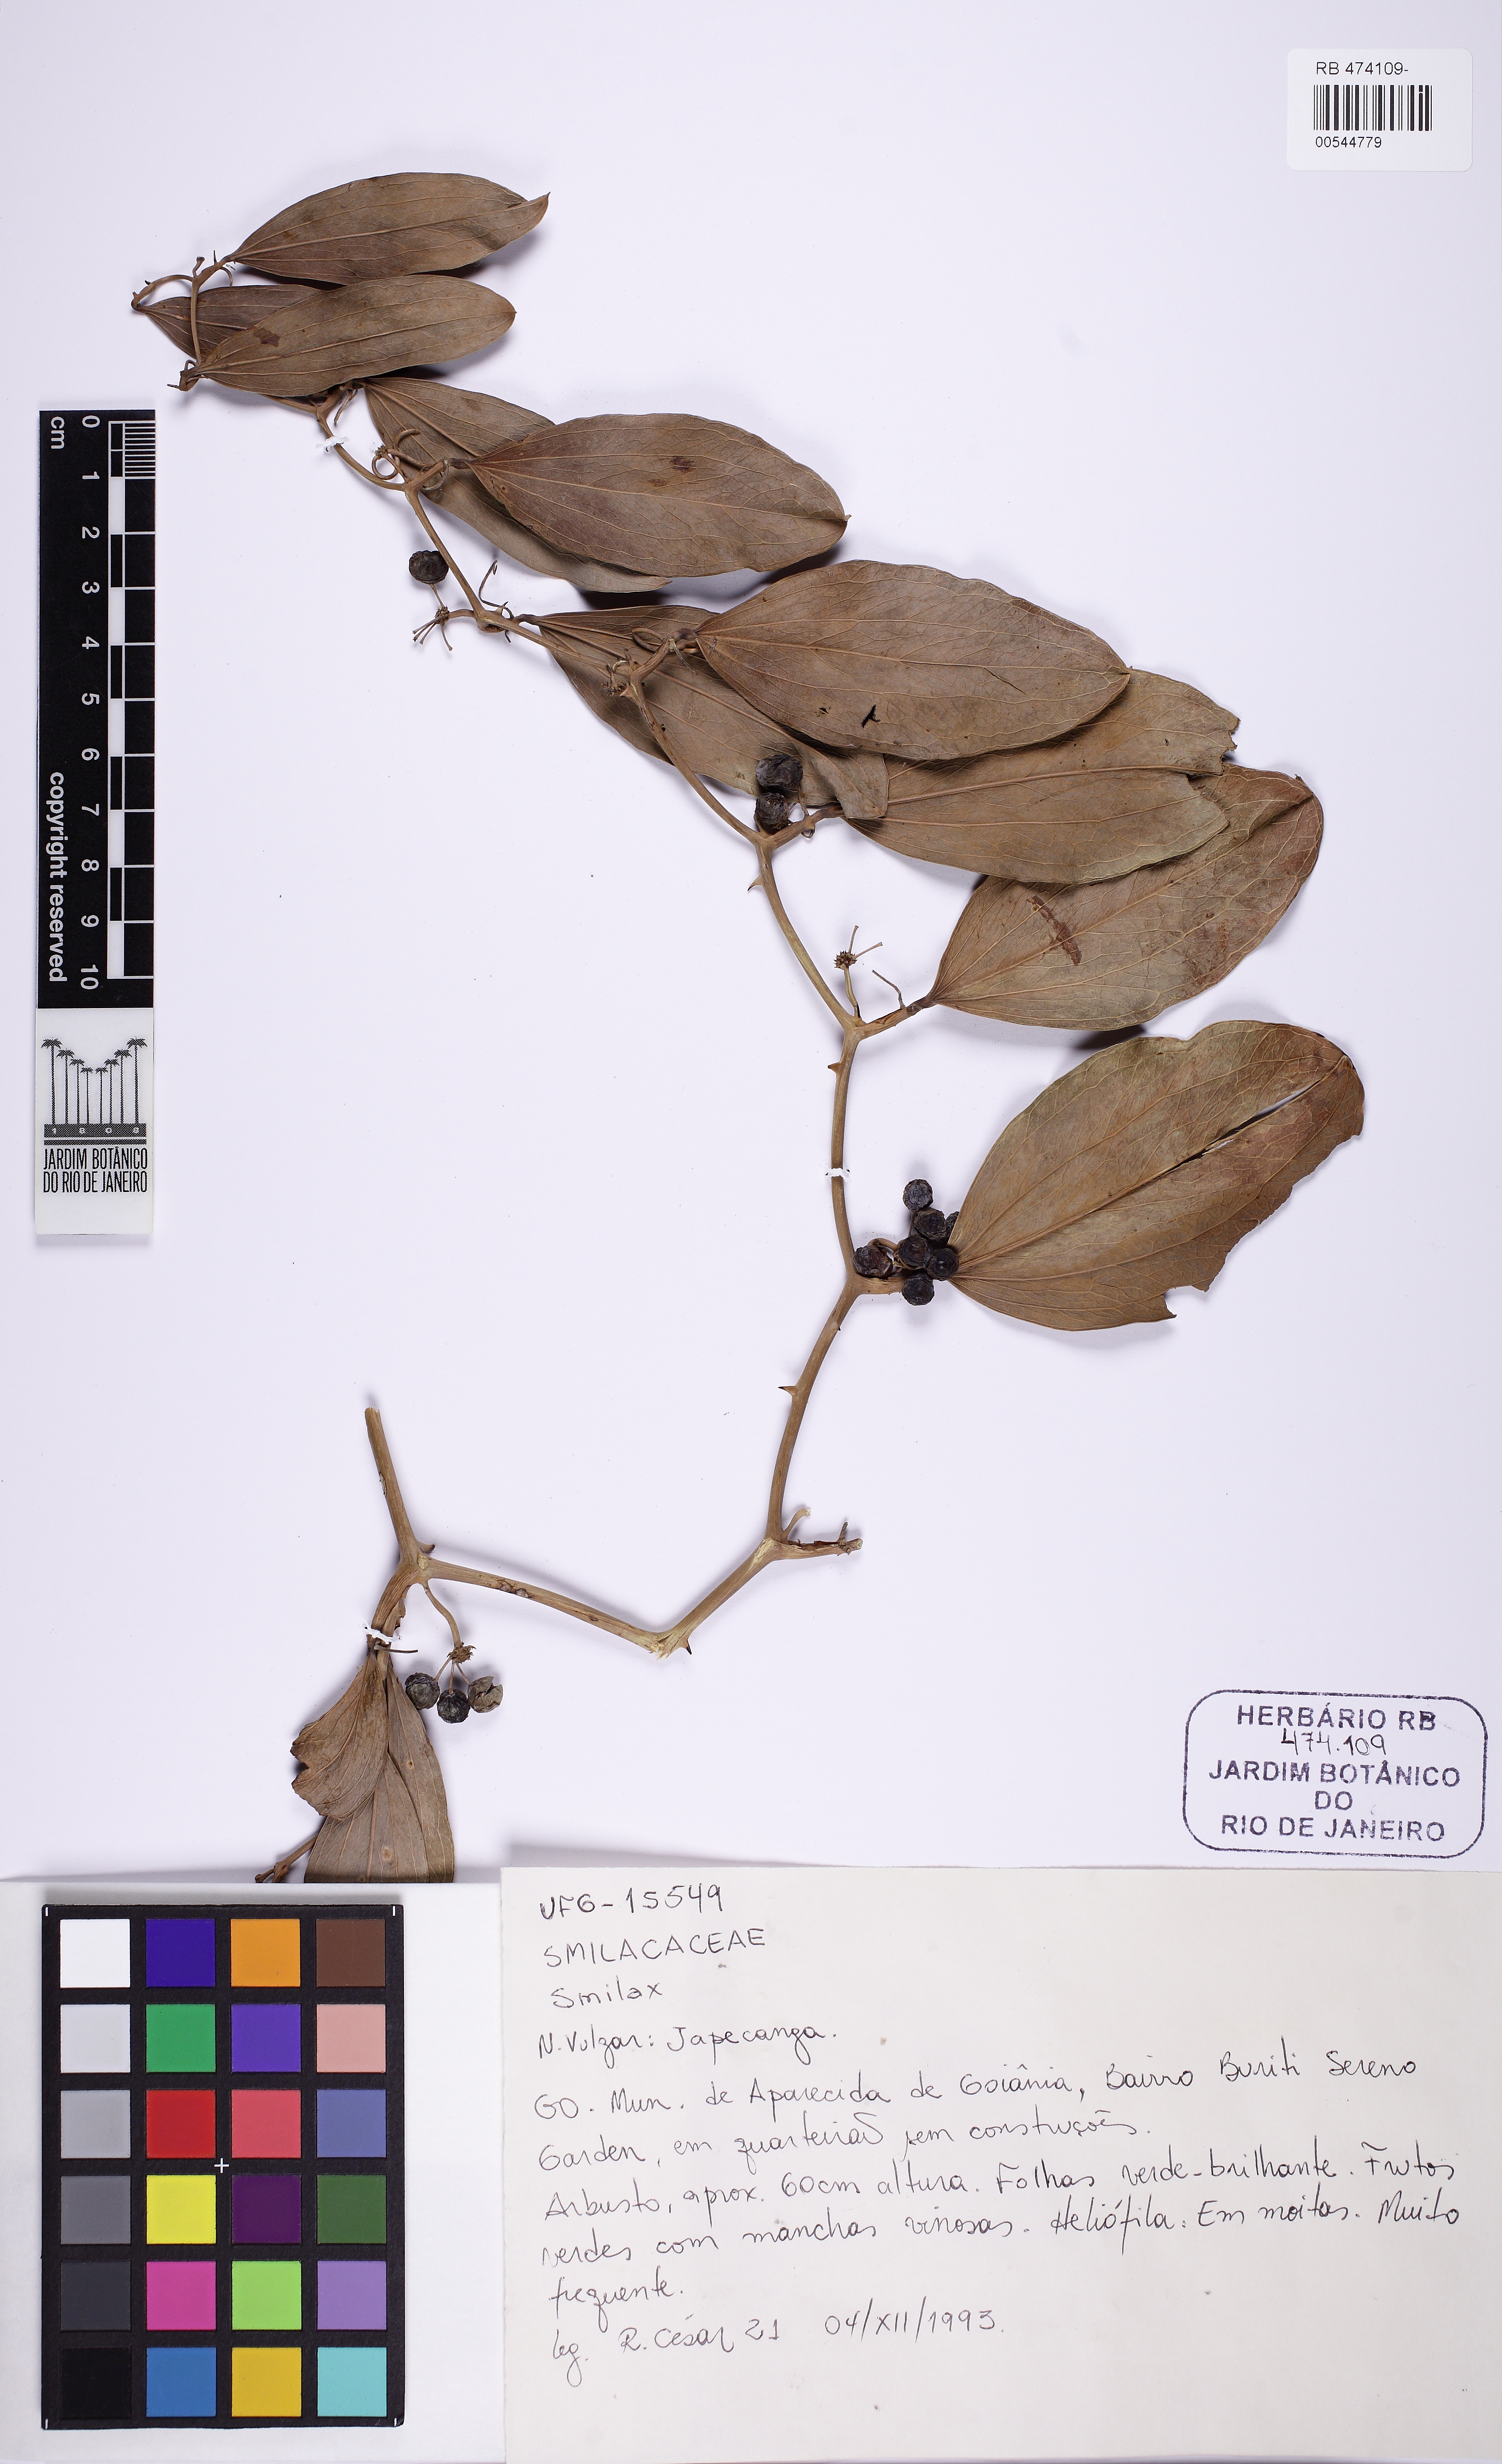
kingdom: Plantae
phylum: Tracheophyta
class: Liliopsida
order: Liliales
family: Smilacaceae
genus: Smilax
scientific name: Smilax
